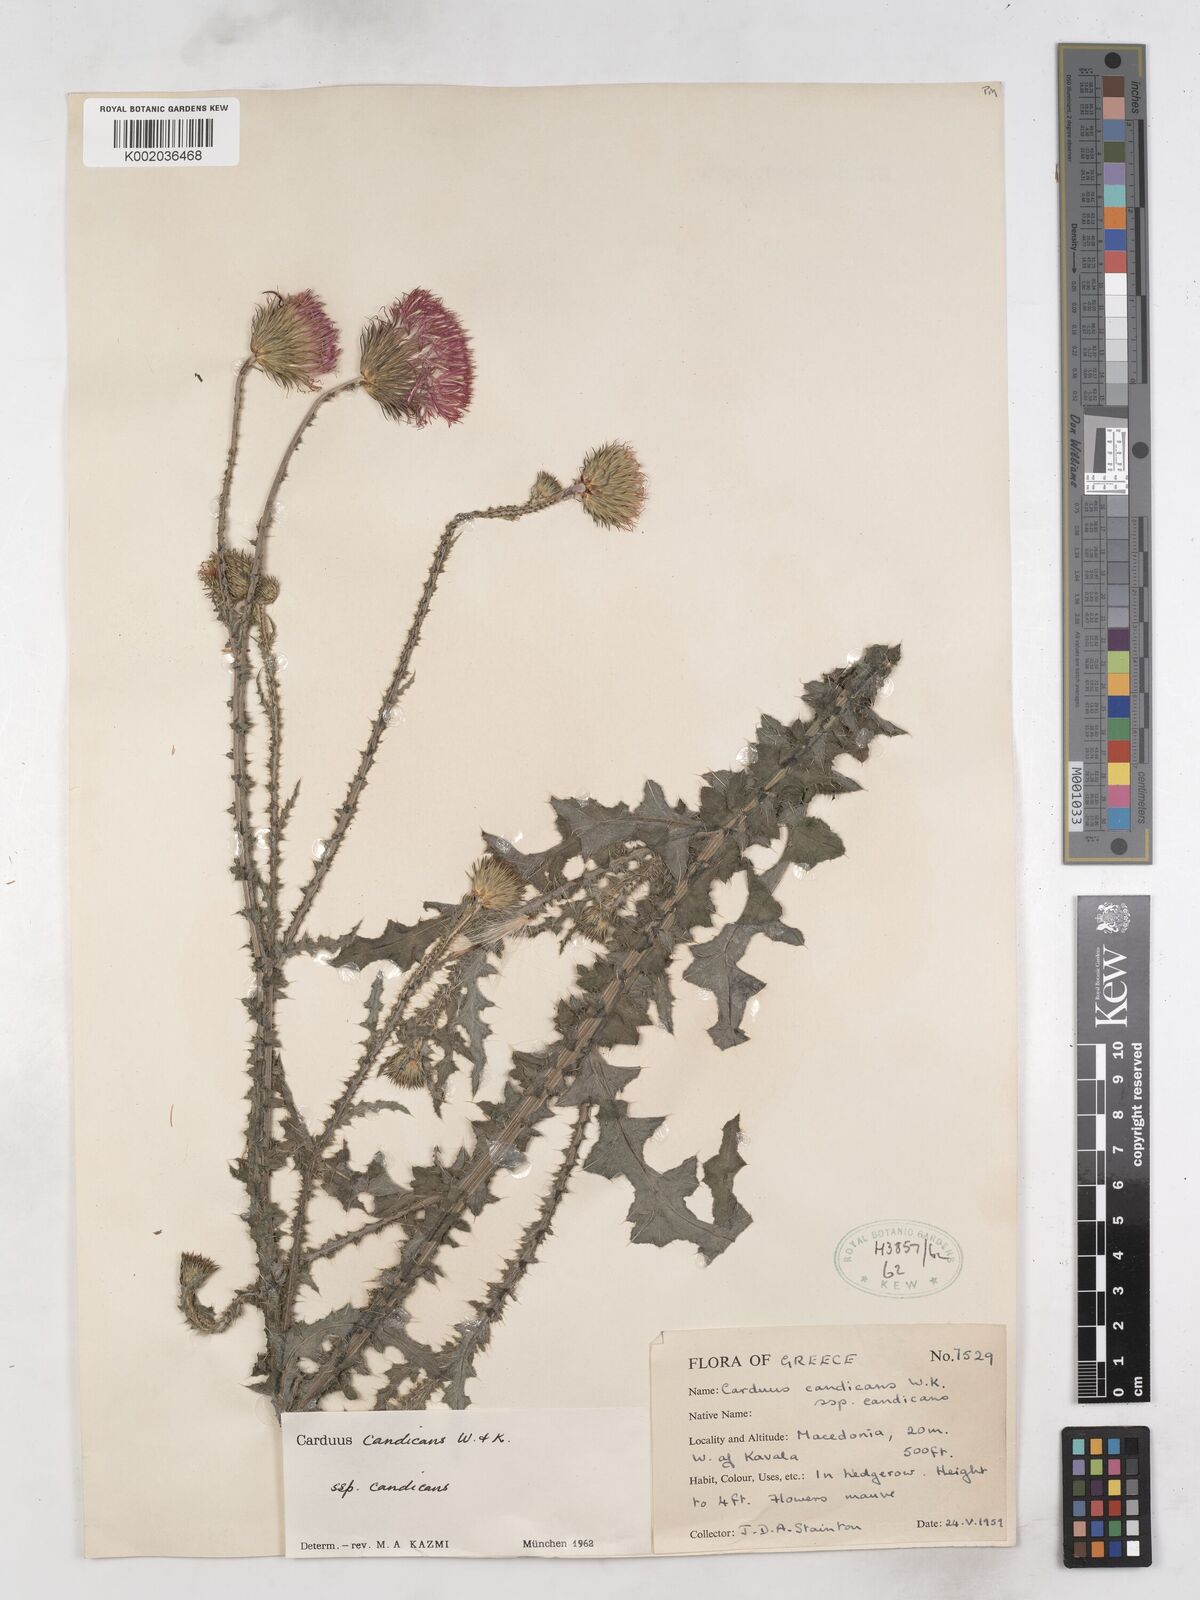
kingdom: Plantae
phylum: Tracheophyta
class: Magnoliopsida
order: Asterales
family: Asteraceae
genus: Carduus
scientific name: Carduus candicans
